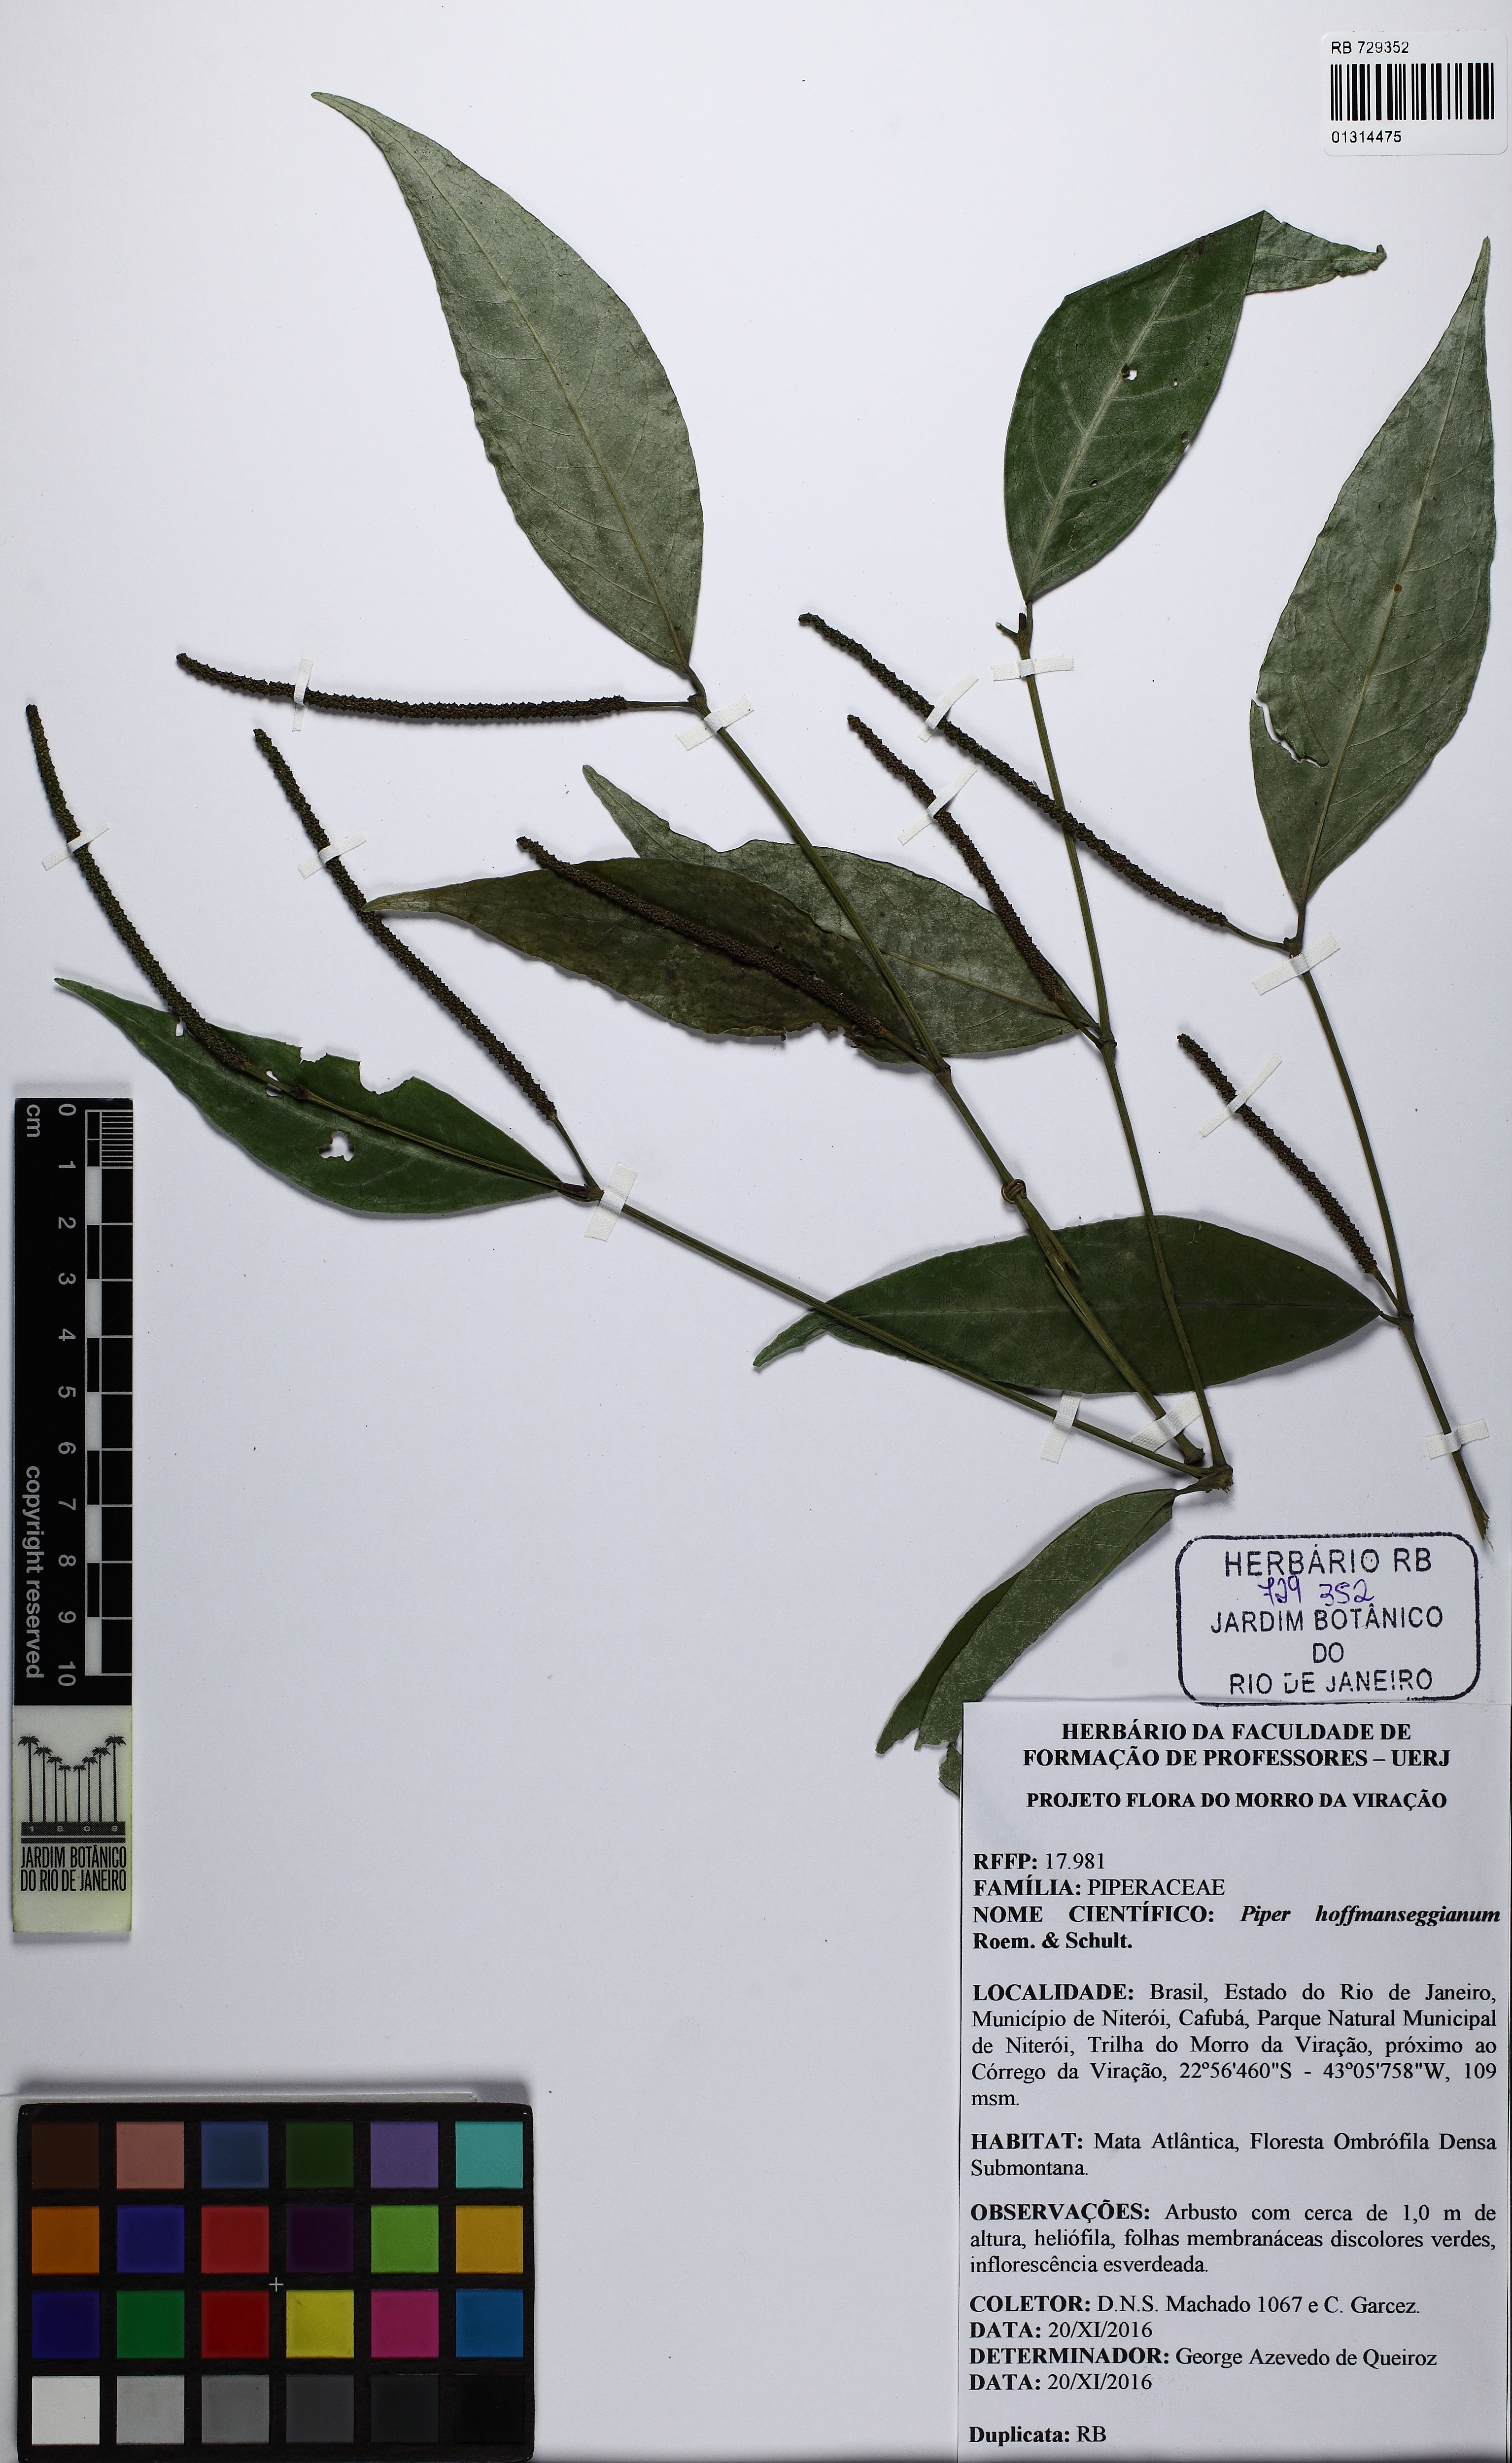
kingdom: Plantae
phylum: Tracheophyta
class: Magnoliopsida
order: Piperales
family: Piperaceae
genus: Piper
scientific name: Piper hoffmannseggianum
